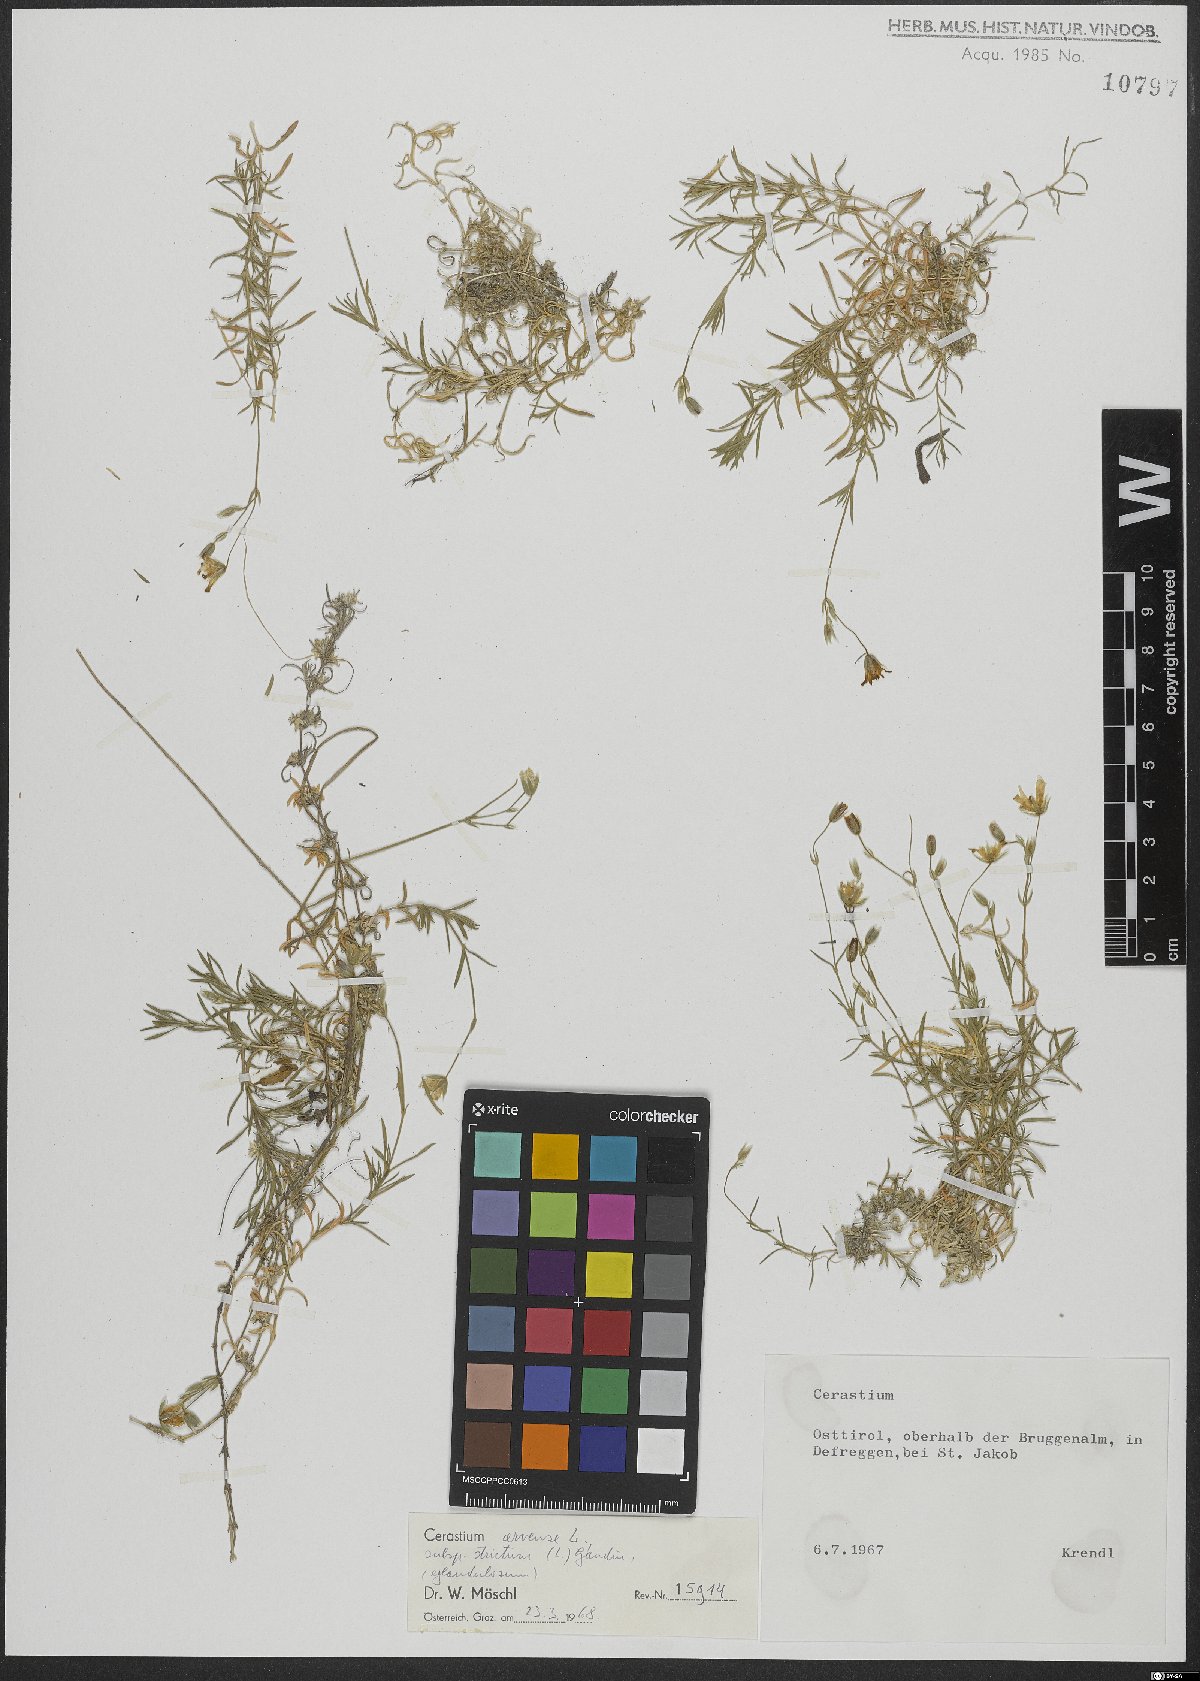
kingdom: Plantae
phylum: Tracheophyta
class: Magnoliopsida
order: Caryophyllales
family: Caryophyllaceae
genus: Cerastium
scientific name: Cerastium elongatum
